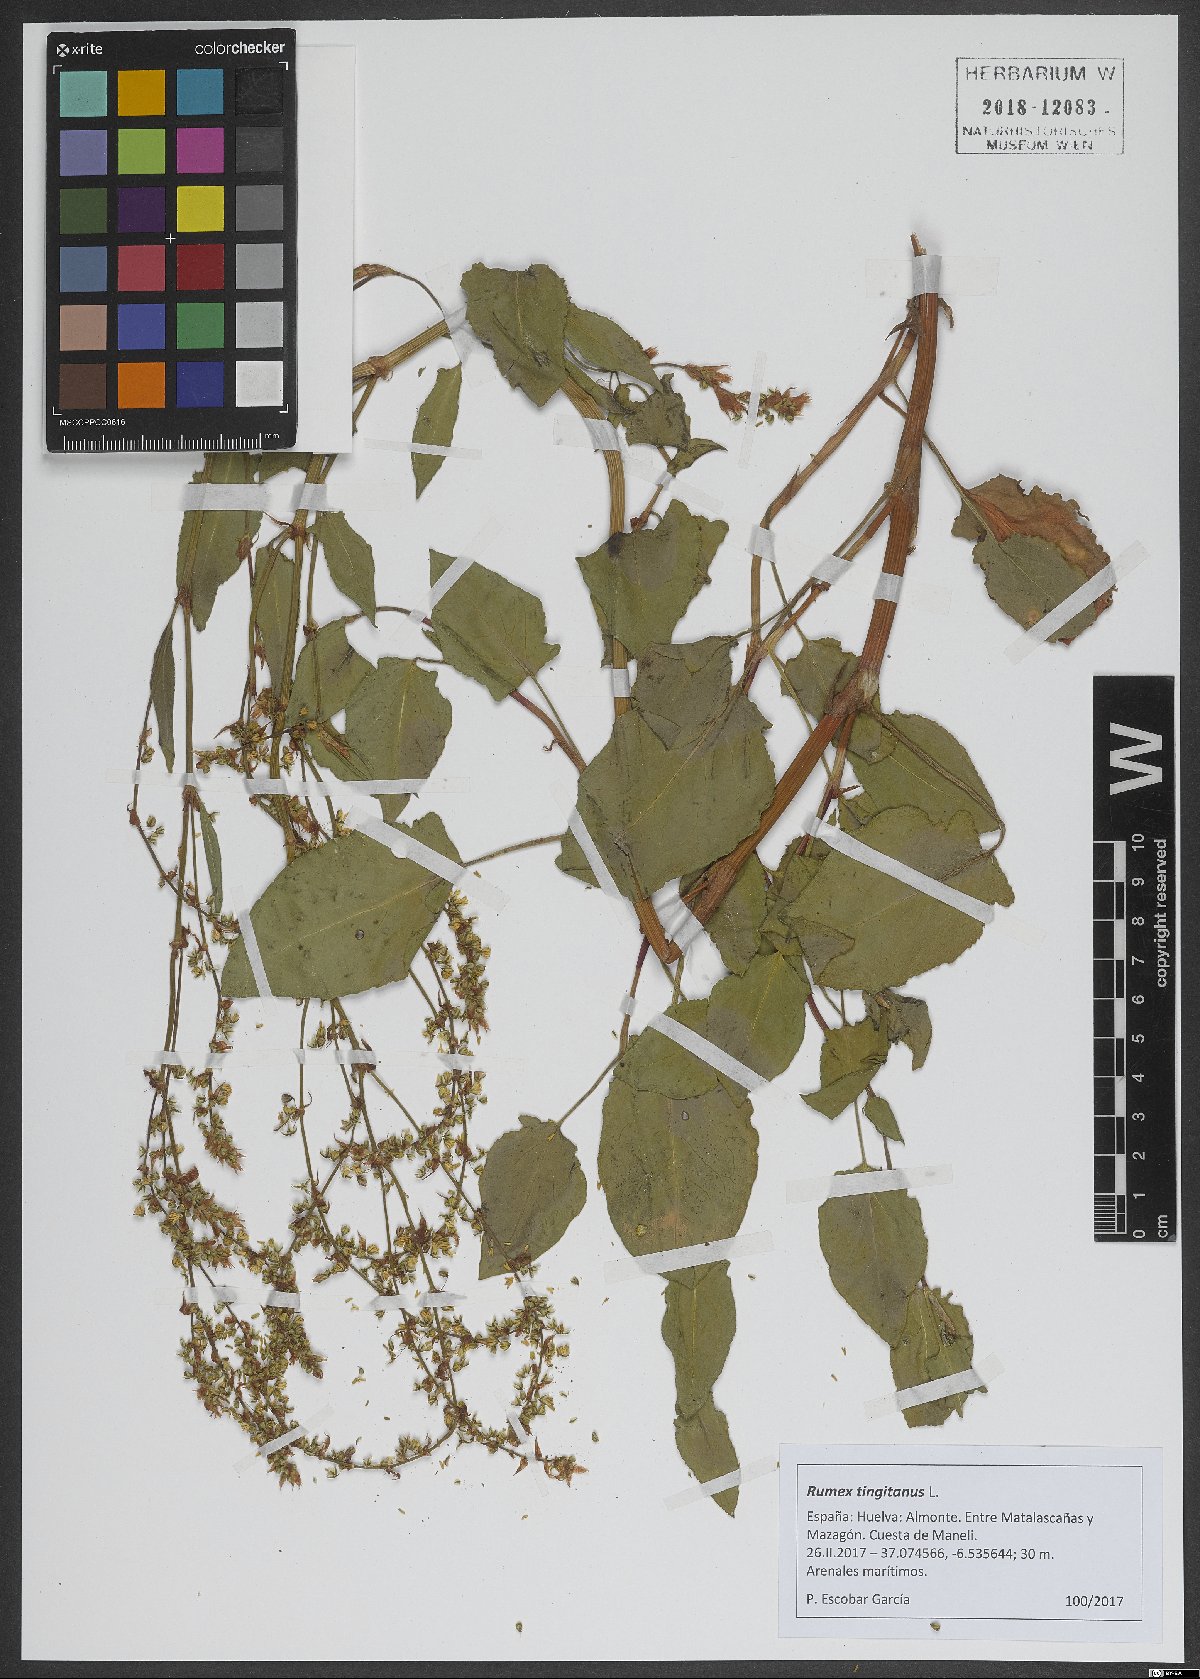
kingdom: Plantae
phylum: Tracheophyta
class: Magnoliopsida
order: Caryophyllales
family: Polygonaceae
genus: Rumex
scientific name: Rumex roseus
